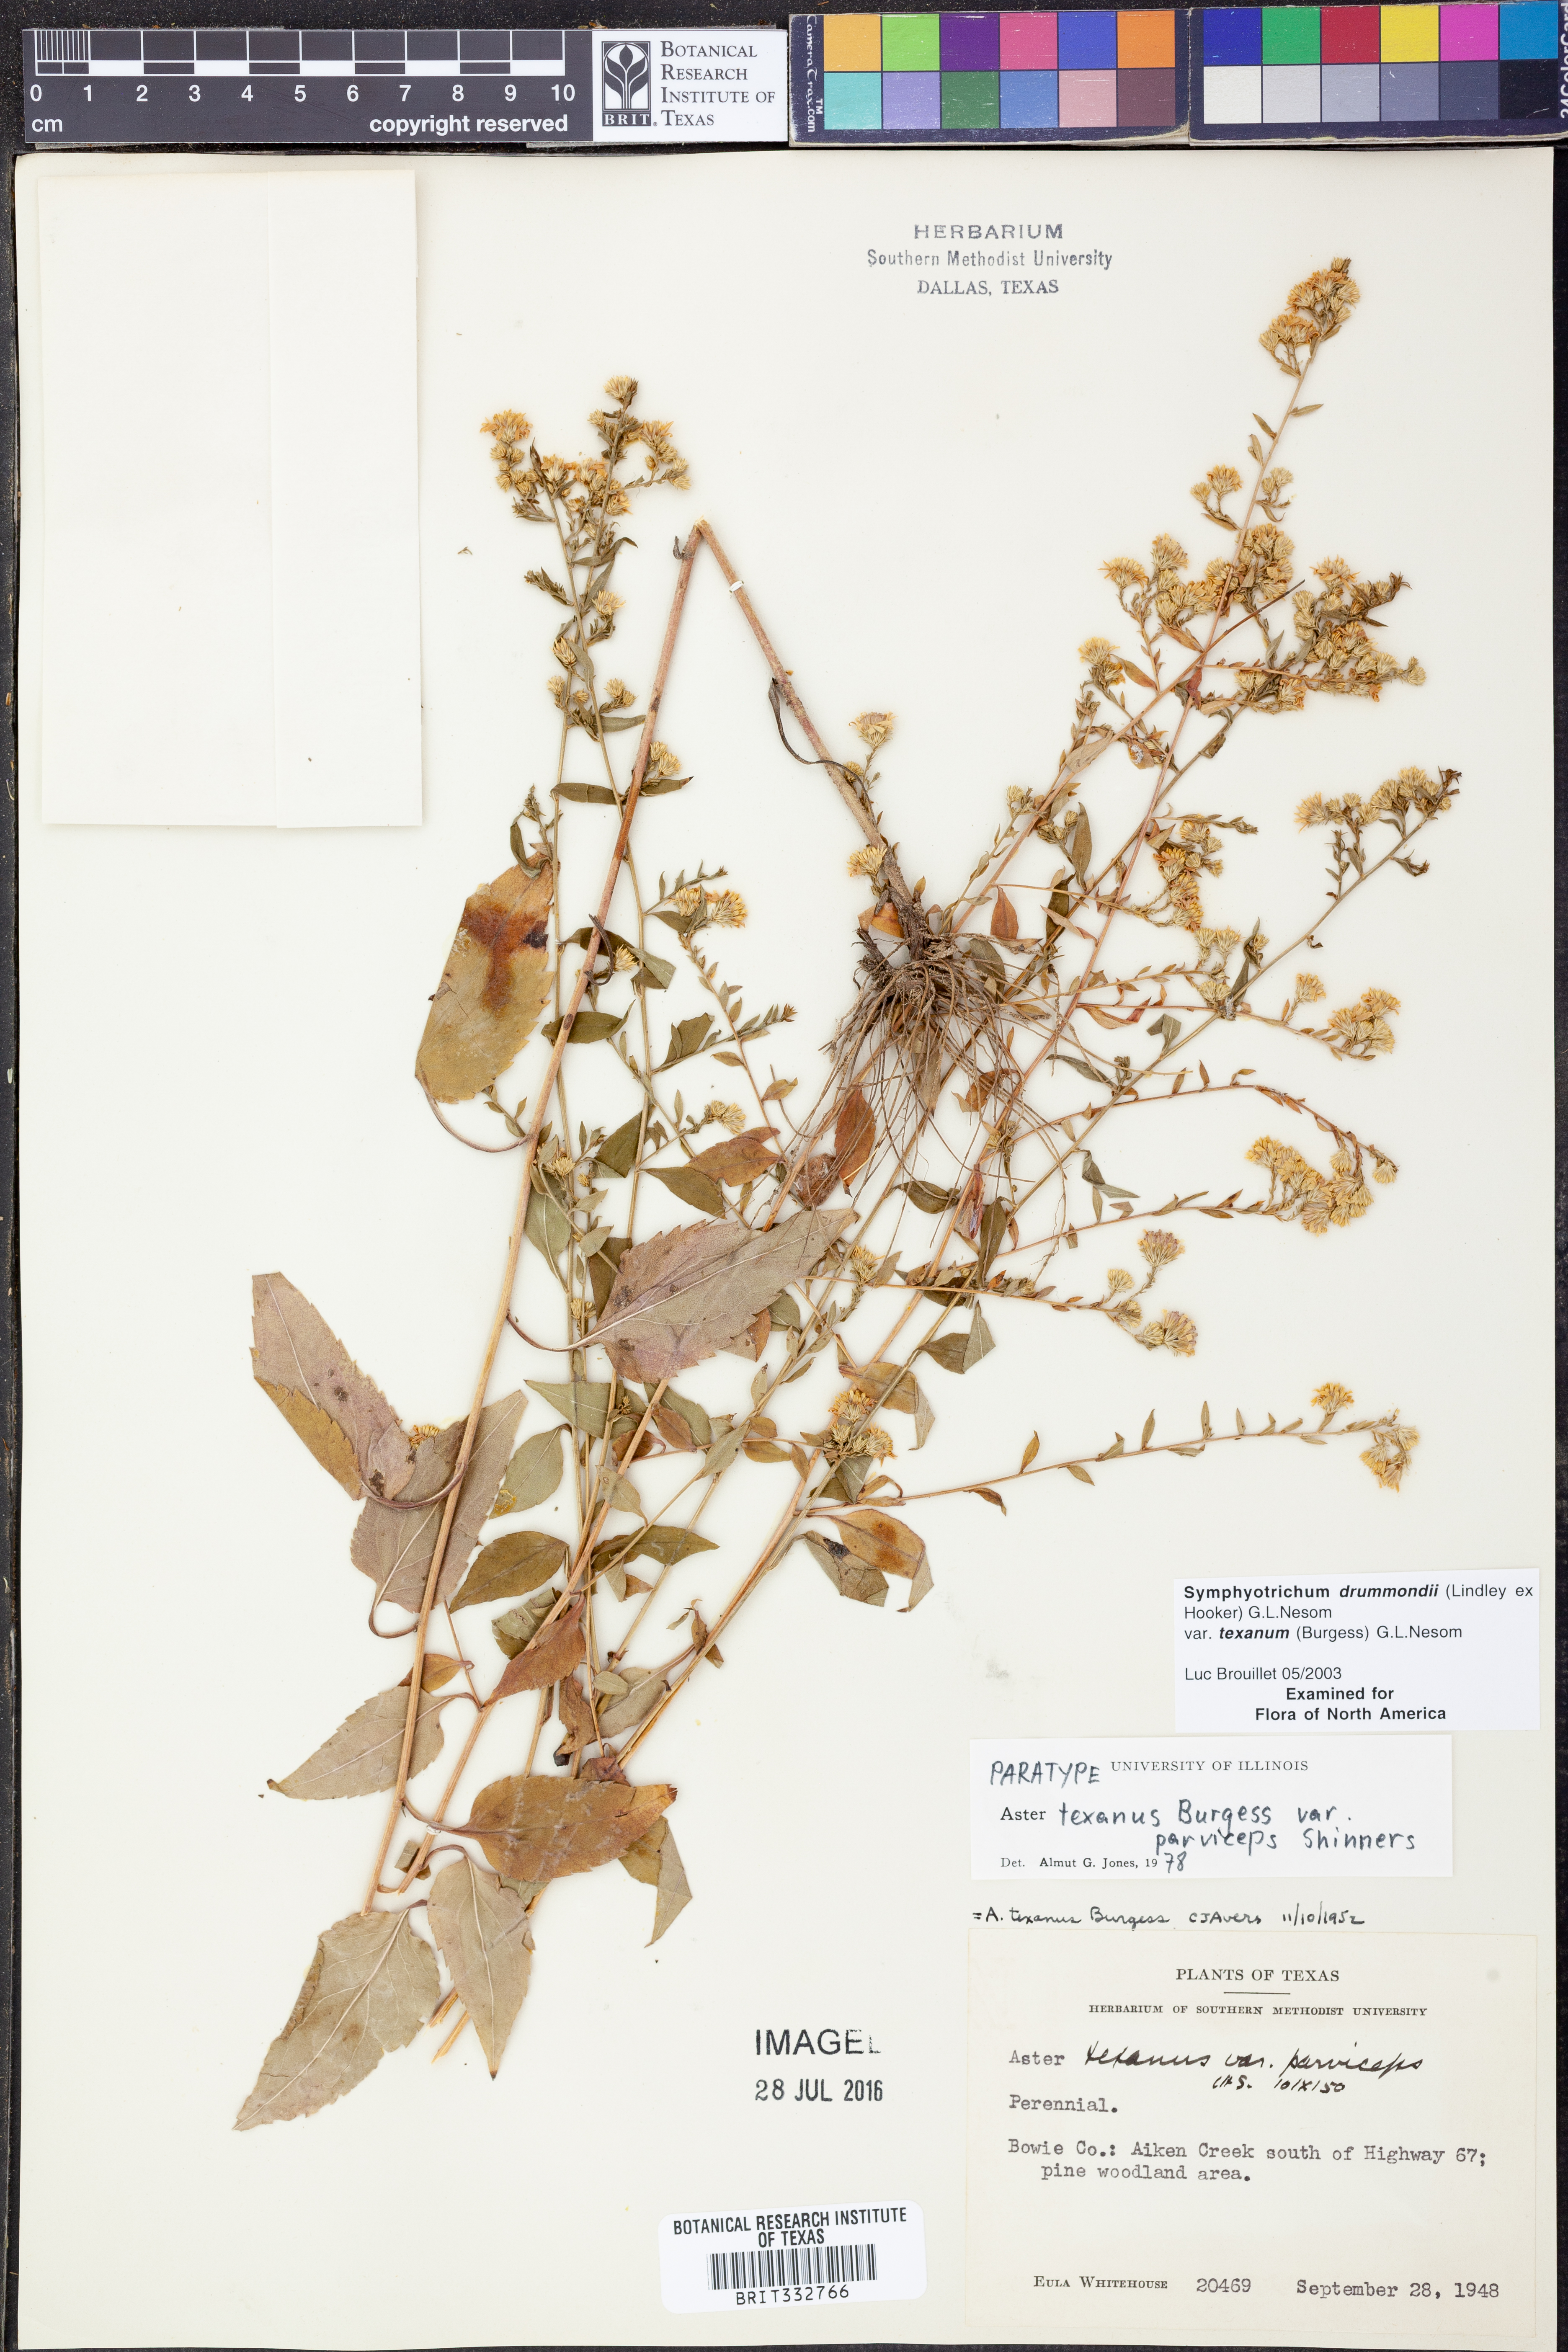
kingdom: Plantae
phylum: Tracheophyta
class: Magnoliopsida
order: Asterales
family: Asteraceae
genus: Symphyotrichum
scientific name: Symphyotrichum drummondii
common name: Drummond's aster
